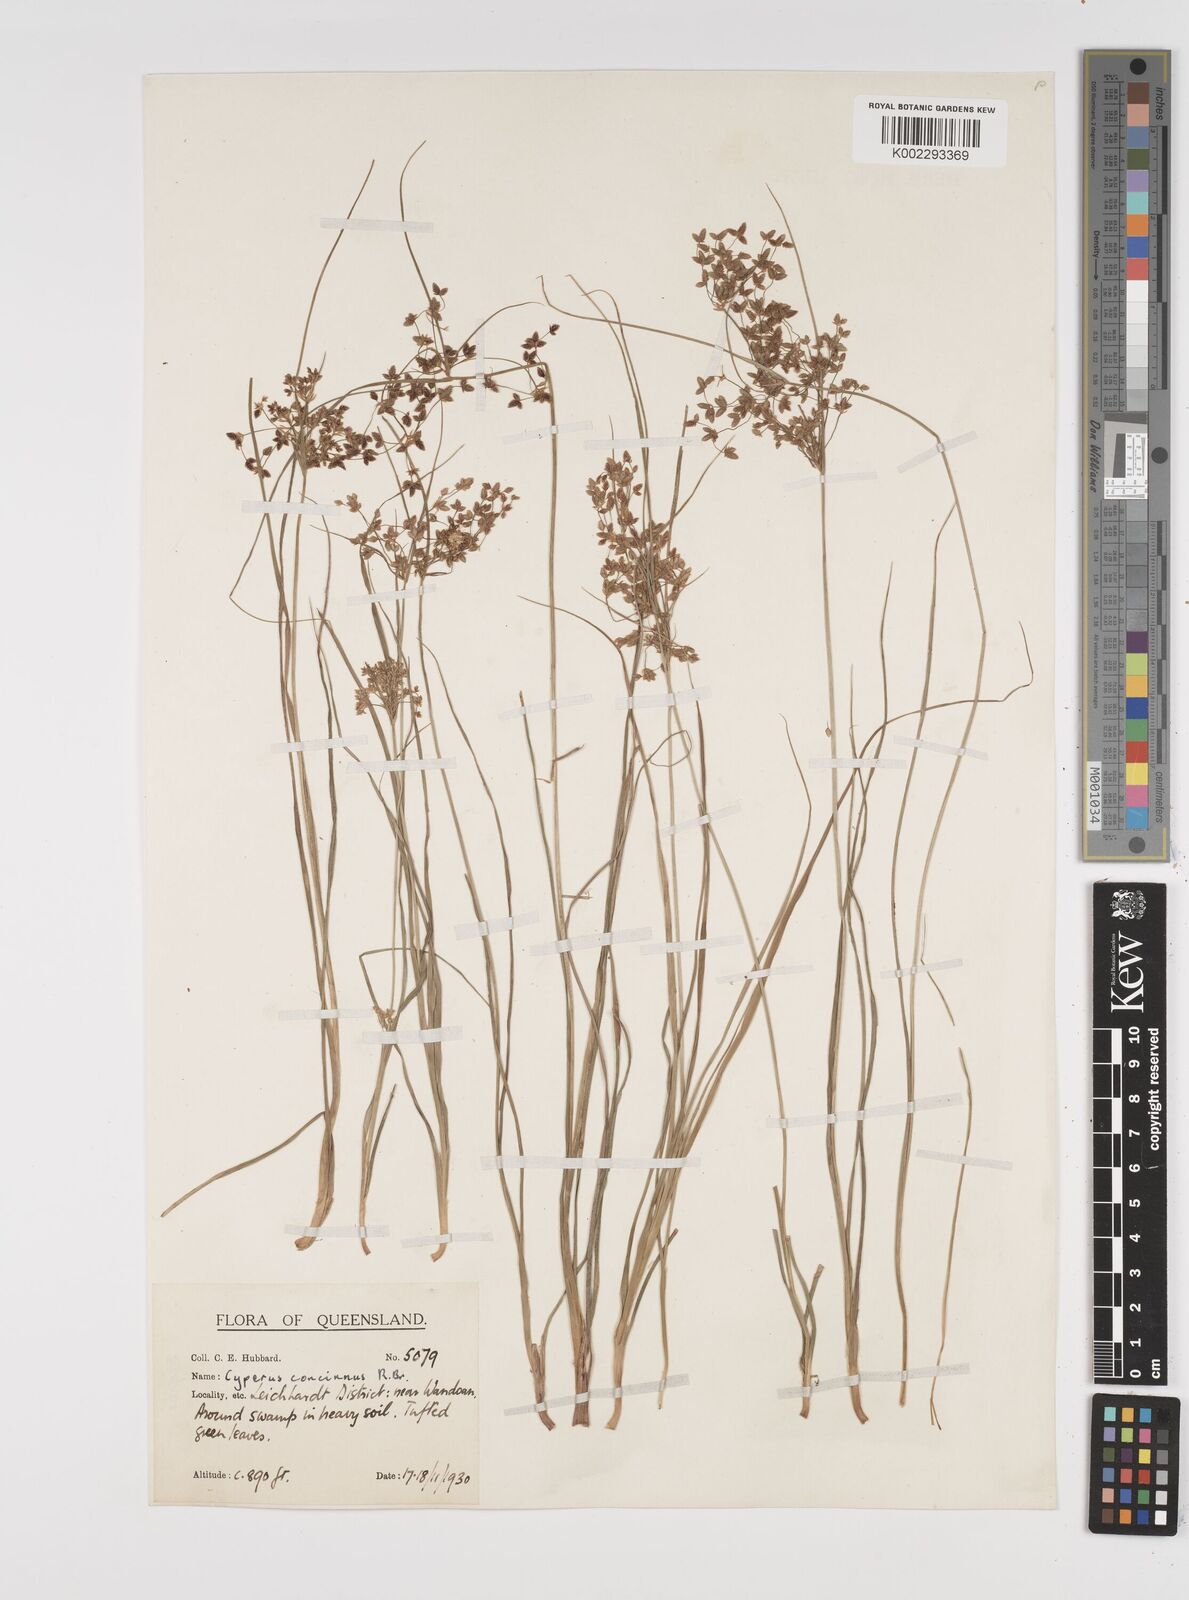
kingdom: Plantae
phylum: Tracheophyta
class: Liliopsida
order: Poales
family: Cyperaceae
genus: Cyperus
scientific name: Cyperus concinnus
